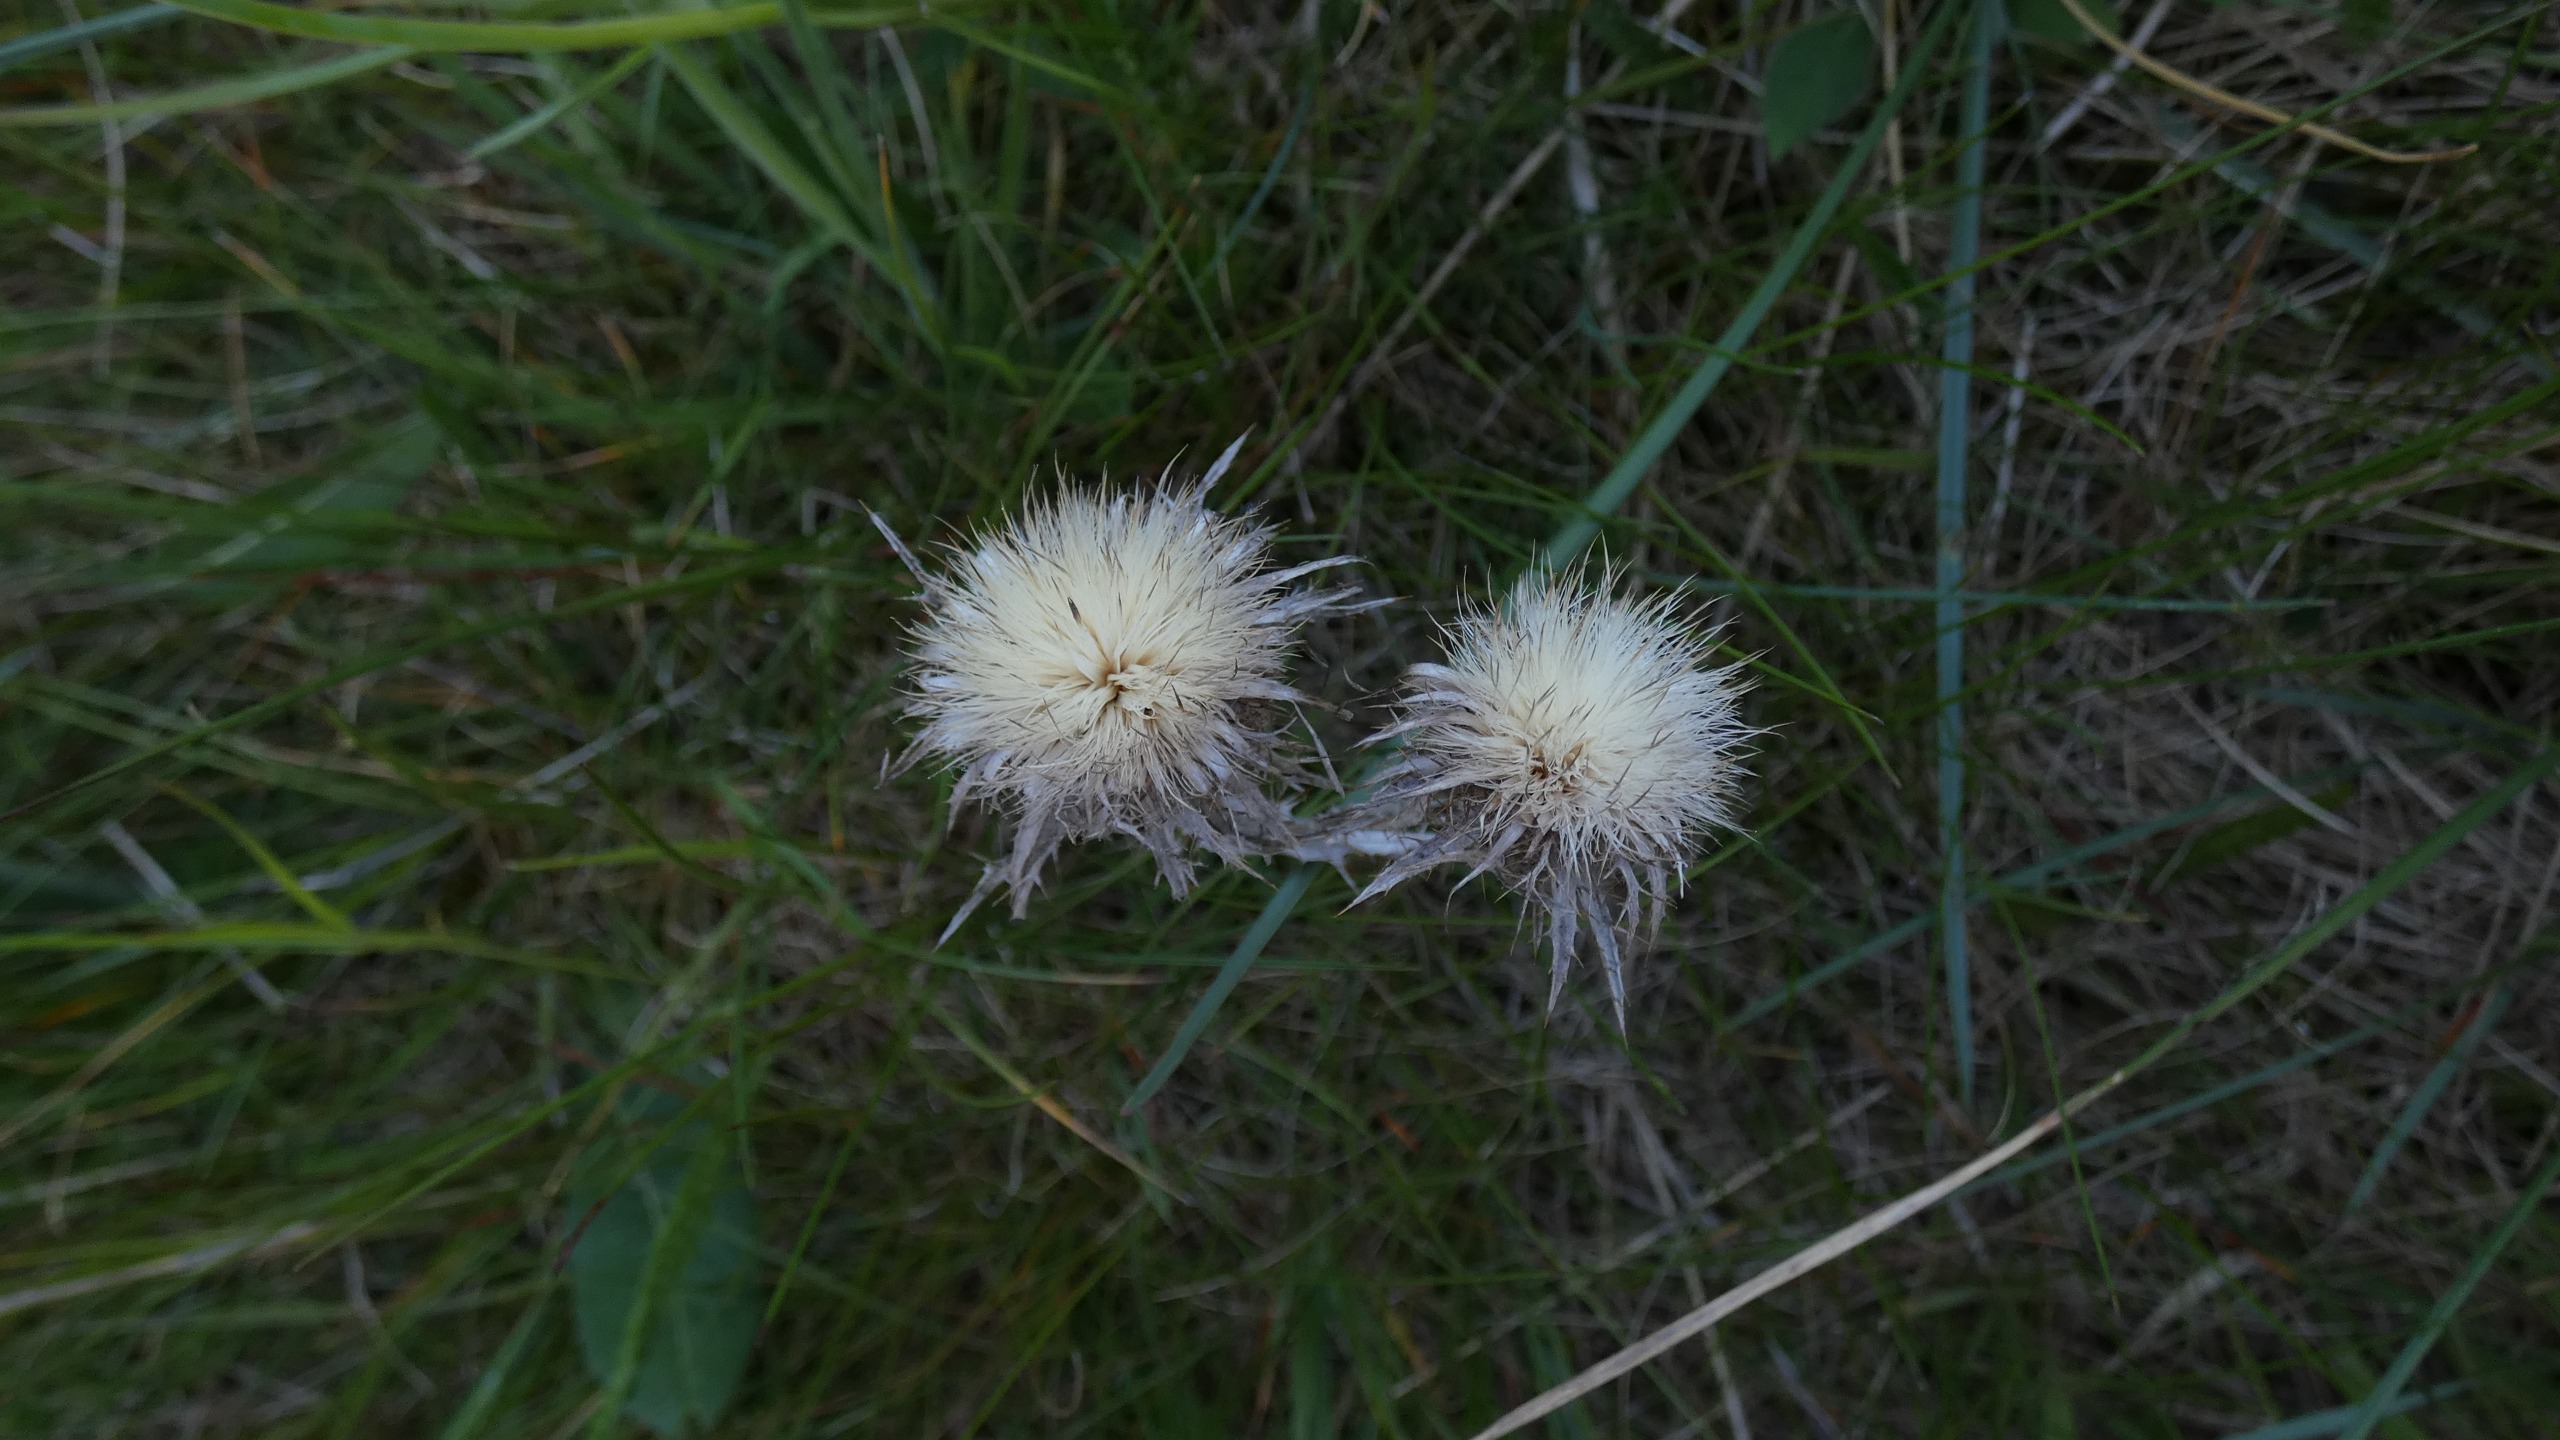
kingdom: Plantae
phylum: Tracheophyta
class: Magnoliopsida
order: Asterales
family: Asteraceae
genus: Carlina
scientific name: Carlina vulgaris
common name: Bakketidsel
